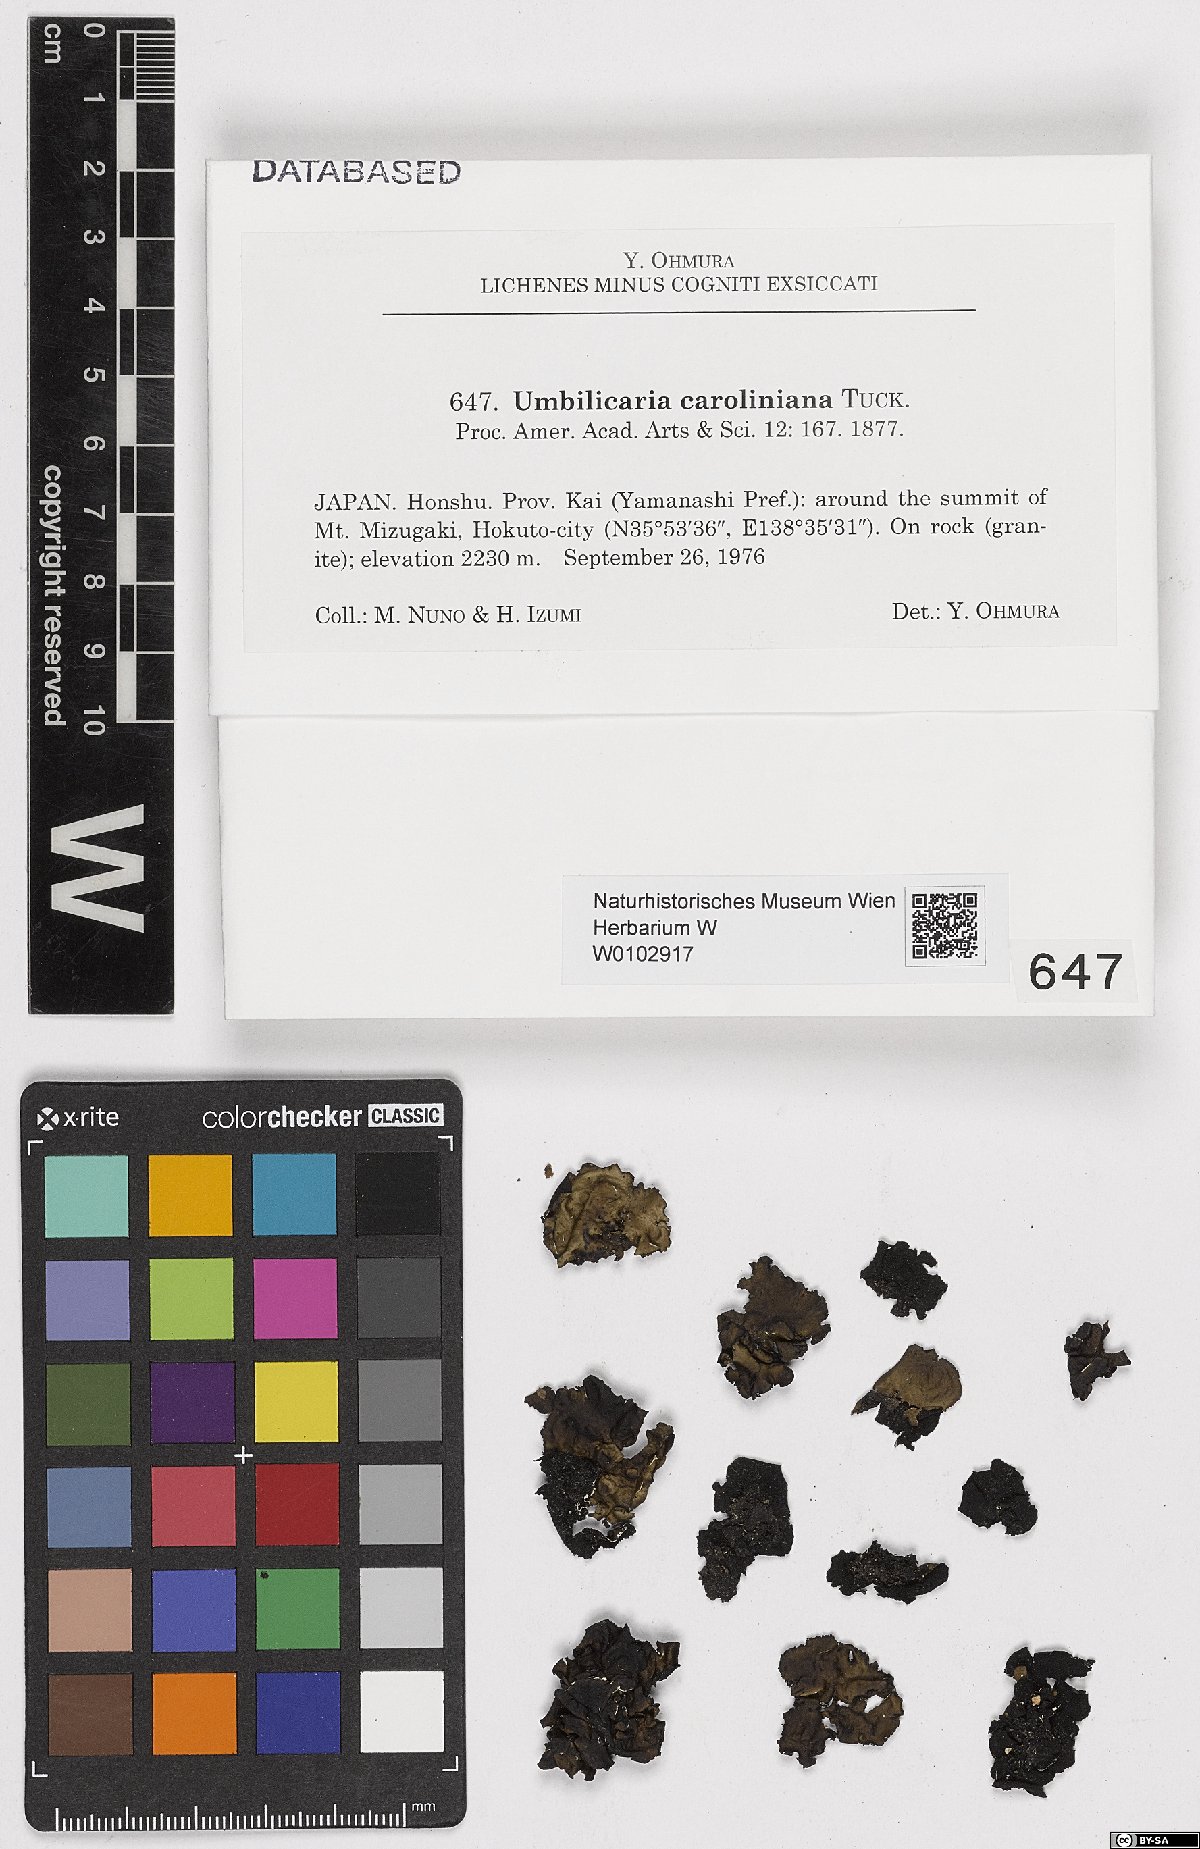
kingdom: Fungi
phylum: Ascomycota
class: Lecanoromycetes
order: Umbilicariales
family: Umbilicariaceae
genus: Lasallia
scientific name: Lasallia caroliniana
